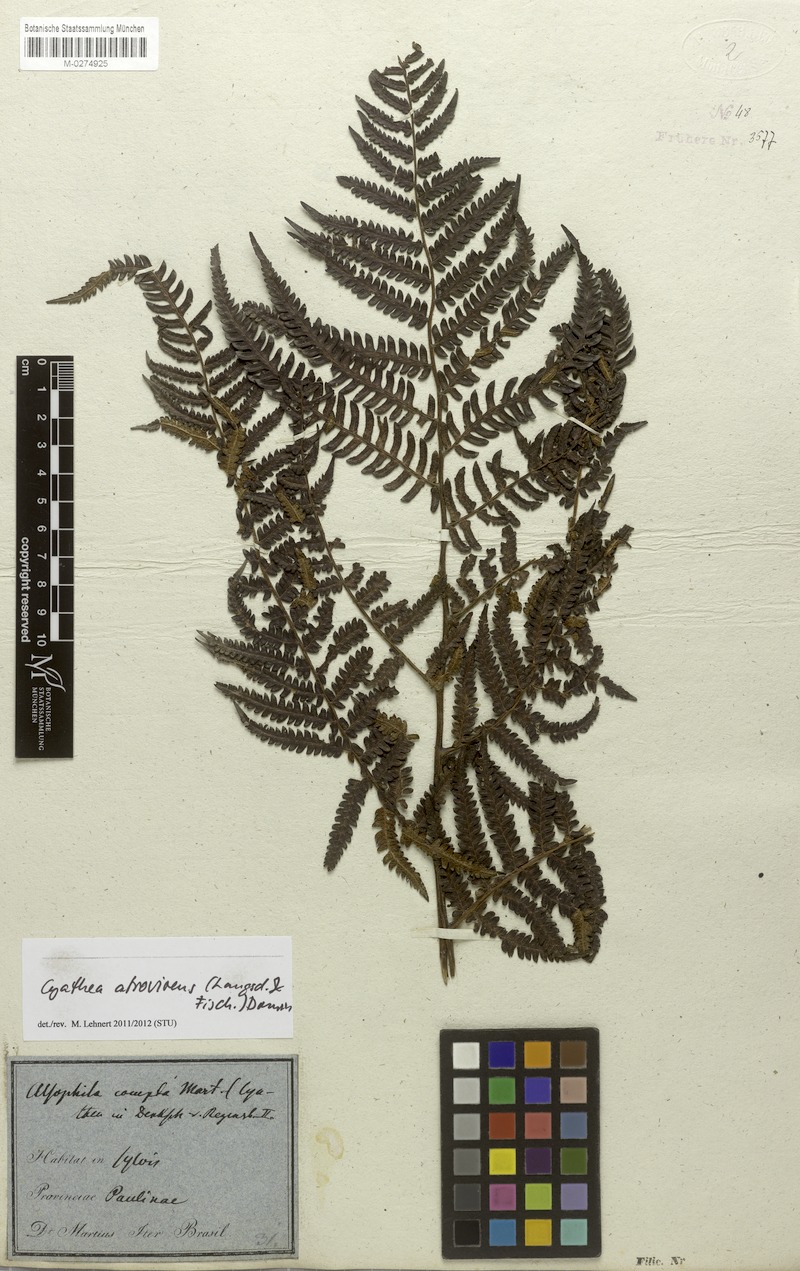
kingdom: Plantae
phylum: Tracheophyta
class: Polypodiopsida
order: Cyatheales
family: Cyatheaceae
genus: Cyathea
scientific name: Cyathea atrovirens
